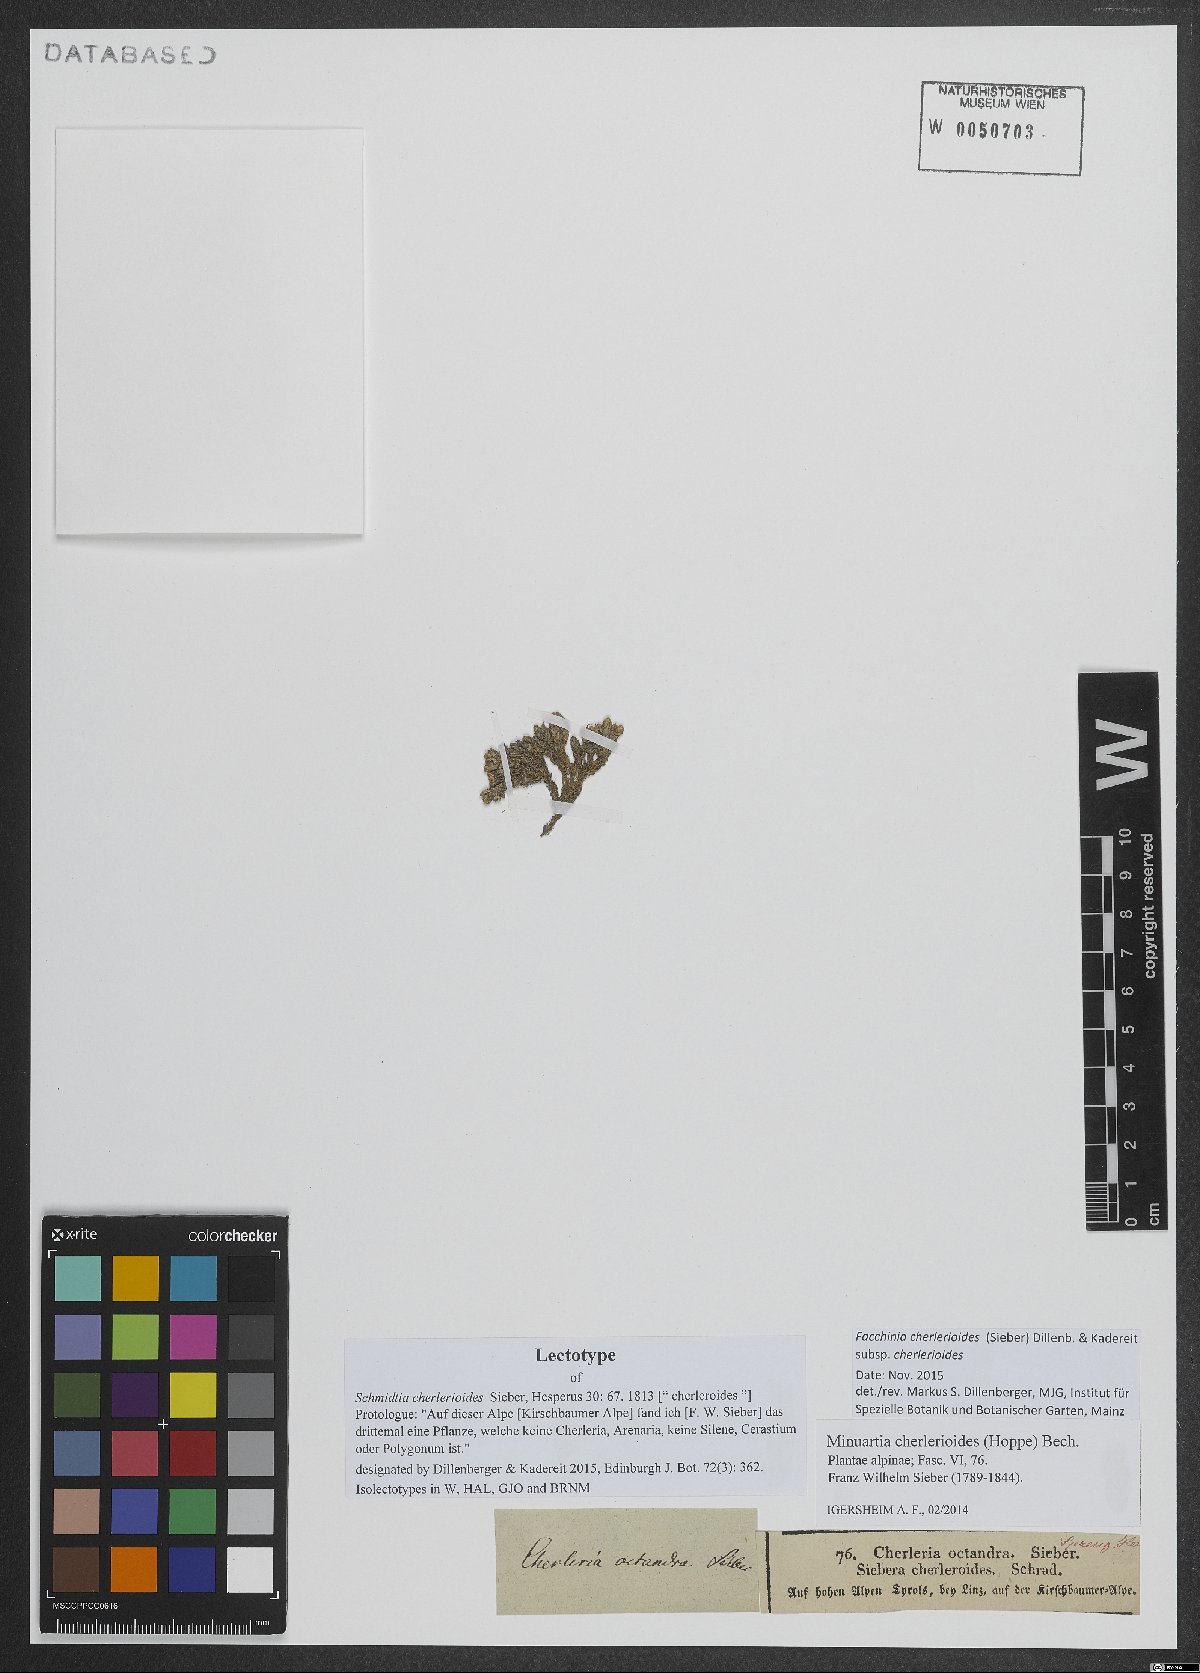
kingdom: Plantae
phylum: Tracheophyta
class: Magnoliopsida
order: Caryophyllales
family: Caryophyllaceae
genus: Facchinia
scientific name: Facchinia cherlerioides
